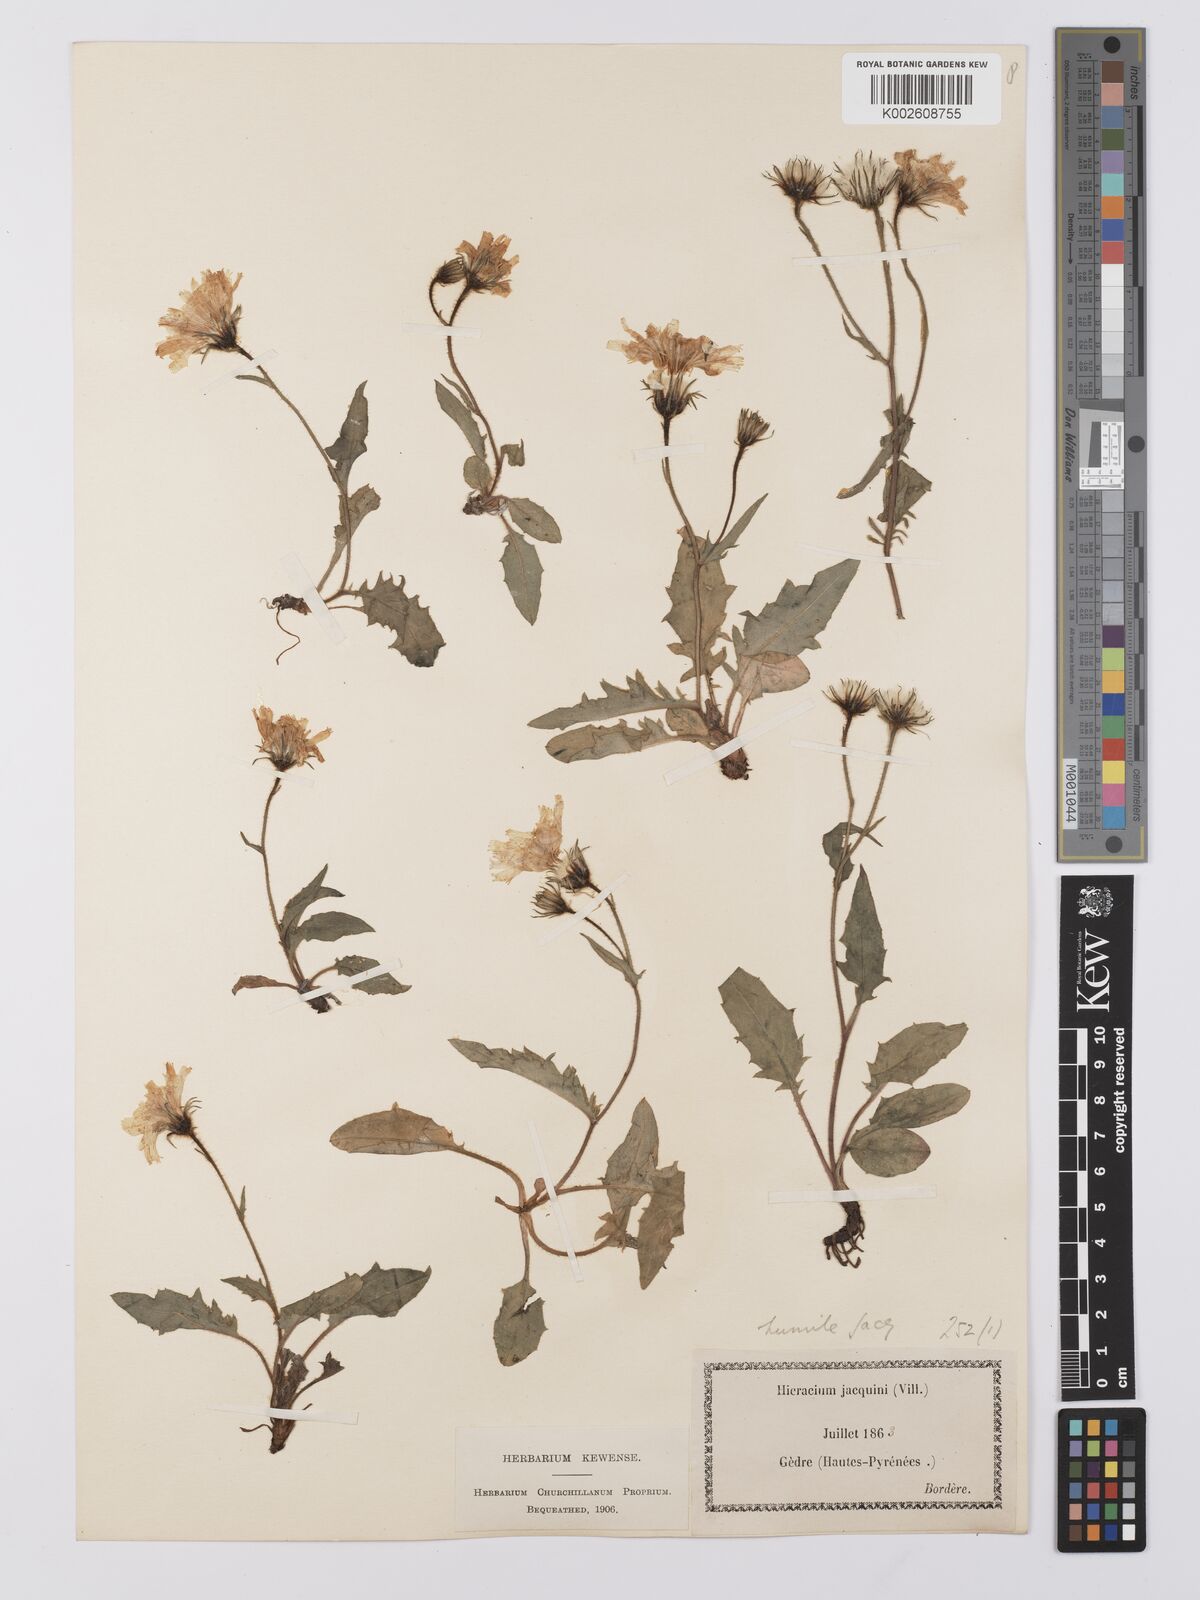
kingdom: Plantae
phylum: Tracheophyta
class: Magnoliopsida
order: Asterales
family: Asteraceae
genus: Hieracium
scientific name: Hieracium humile
